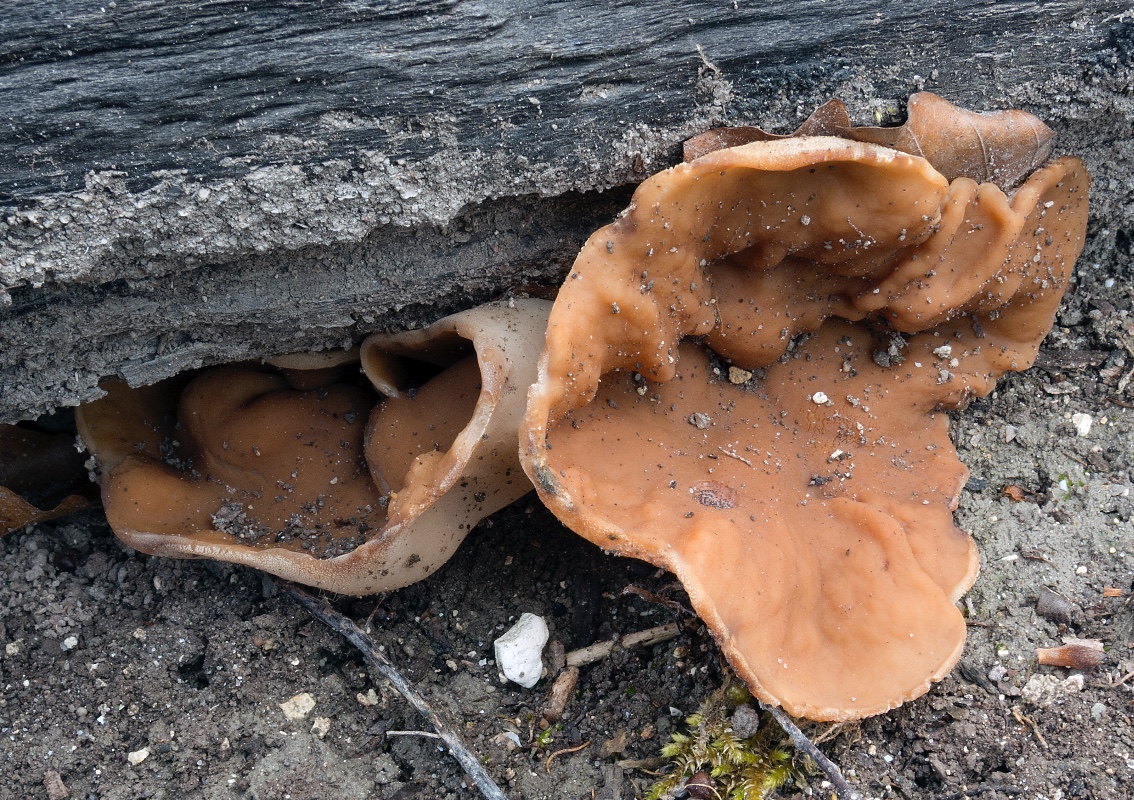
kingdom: Fungi
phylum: Ascomycota
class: Pezizomycetes
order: Pezizales
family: Discinaceae
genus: Gyromitra
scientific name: Gyromitra parma
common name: flad stenmorkel
